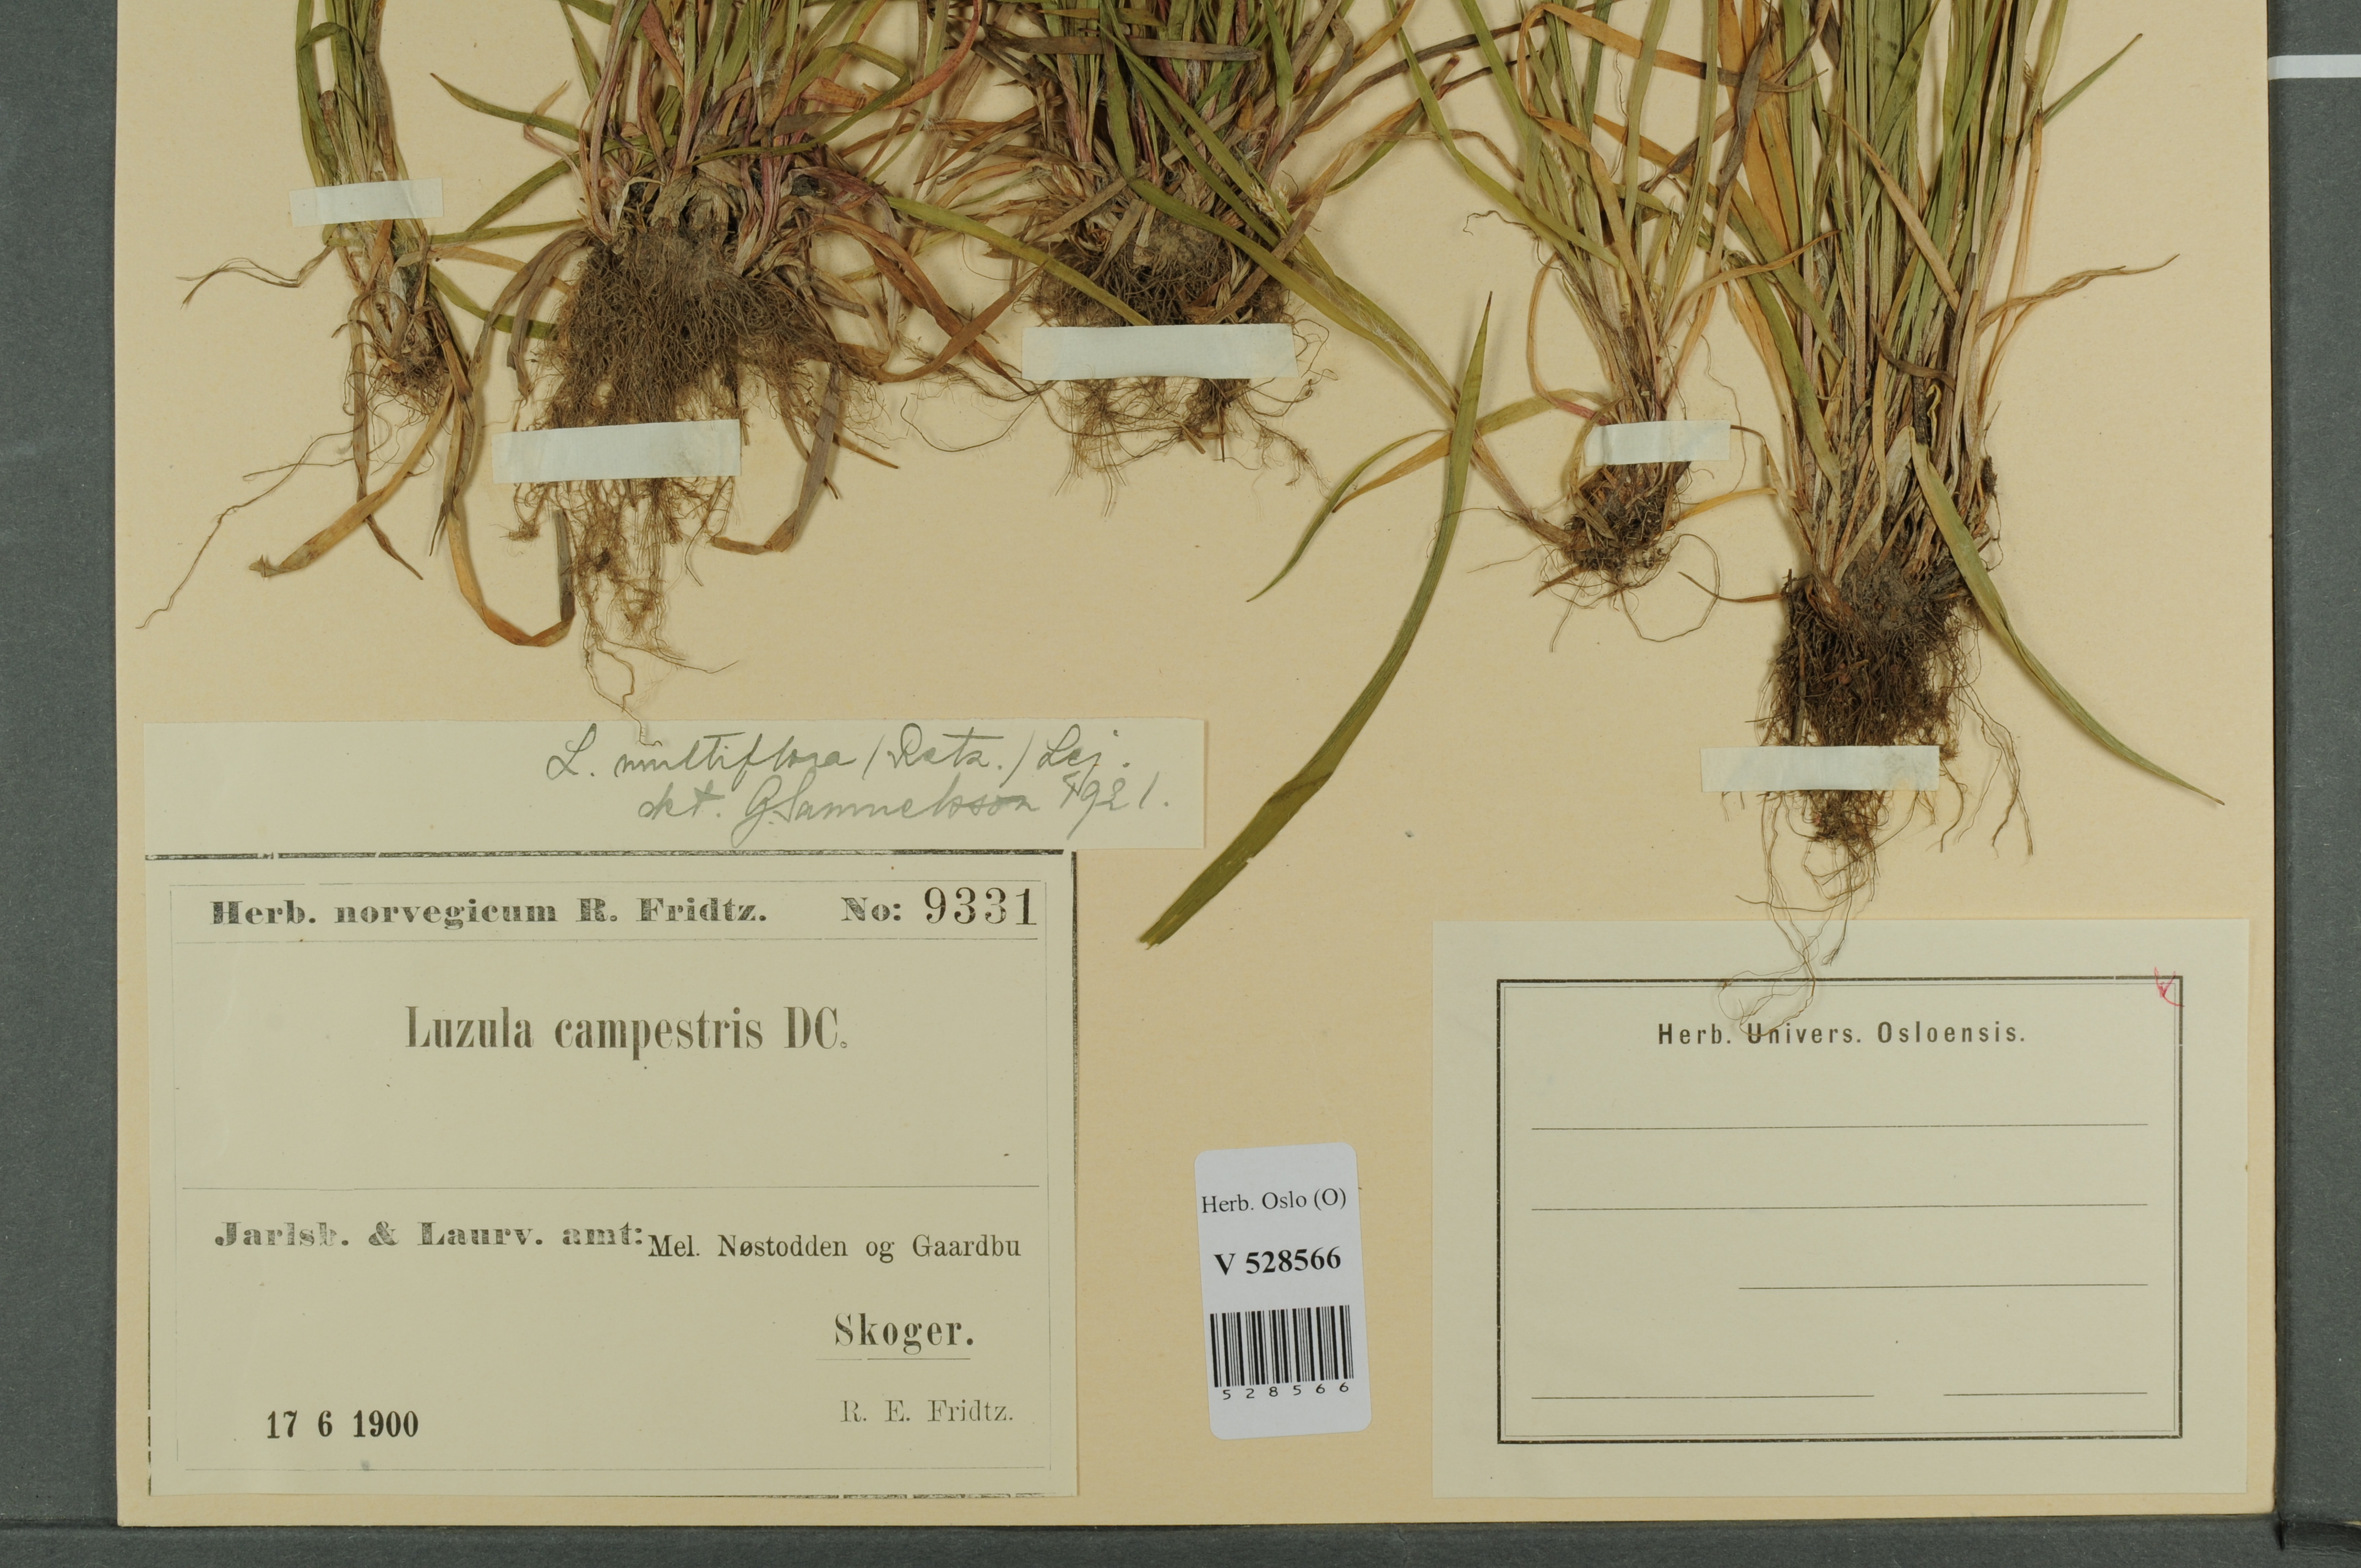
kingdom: Plantae
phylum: Tracheophyta
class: Liliopsida
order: Poales
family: Juncaceae
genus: Luzula
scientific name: Luzula multiflora
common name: Heath wood-rush
